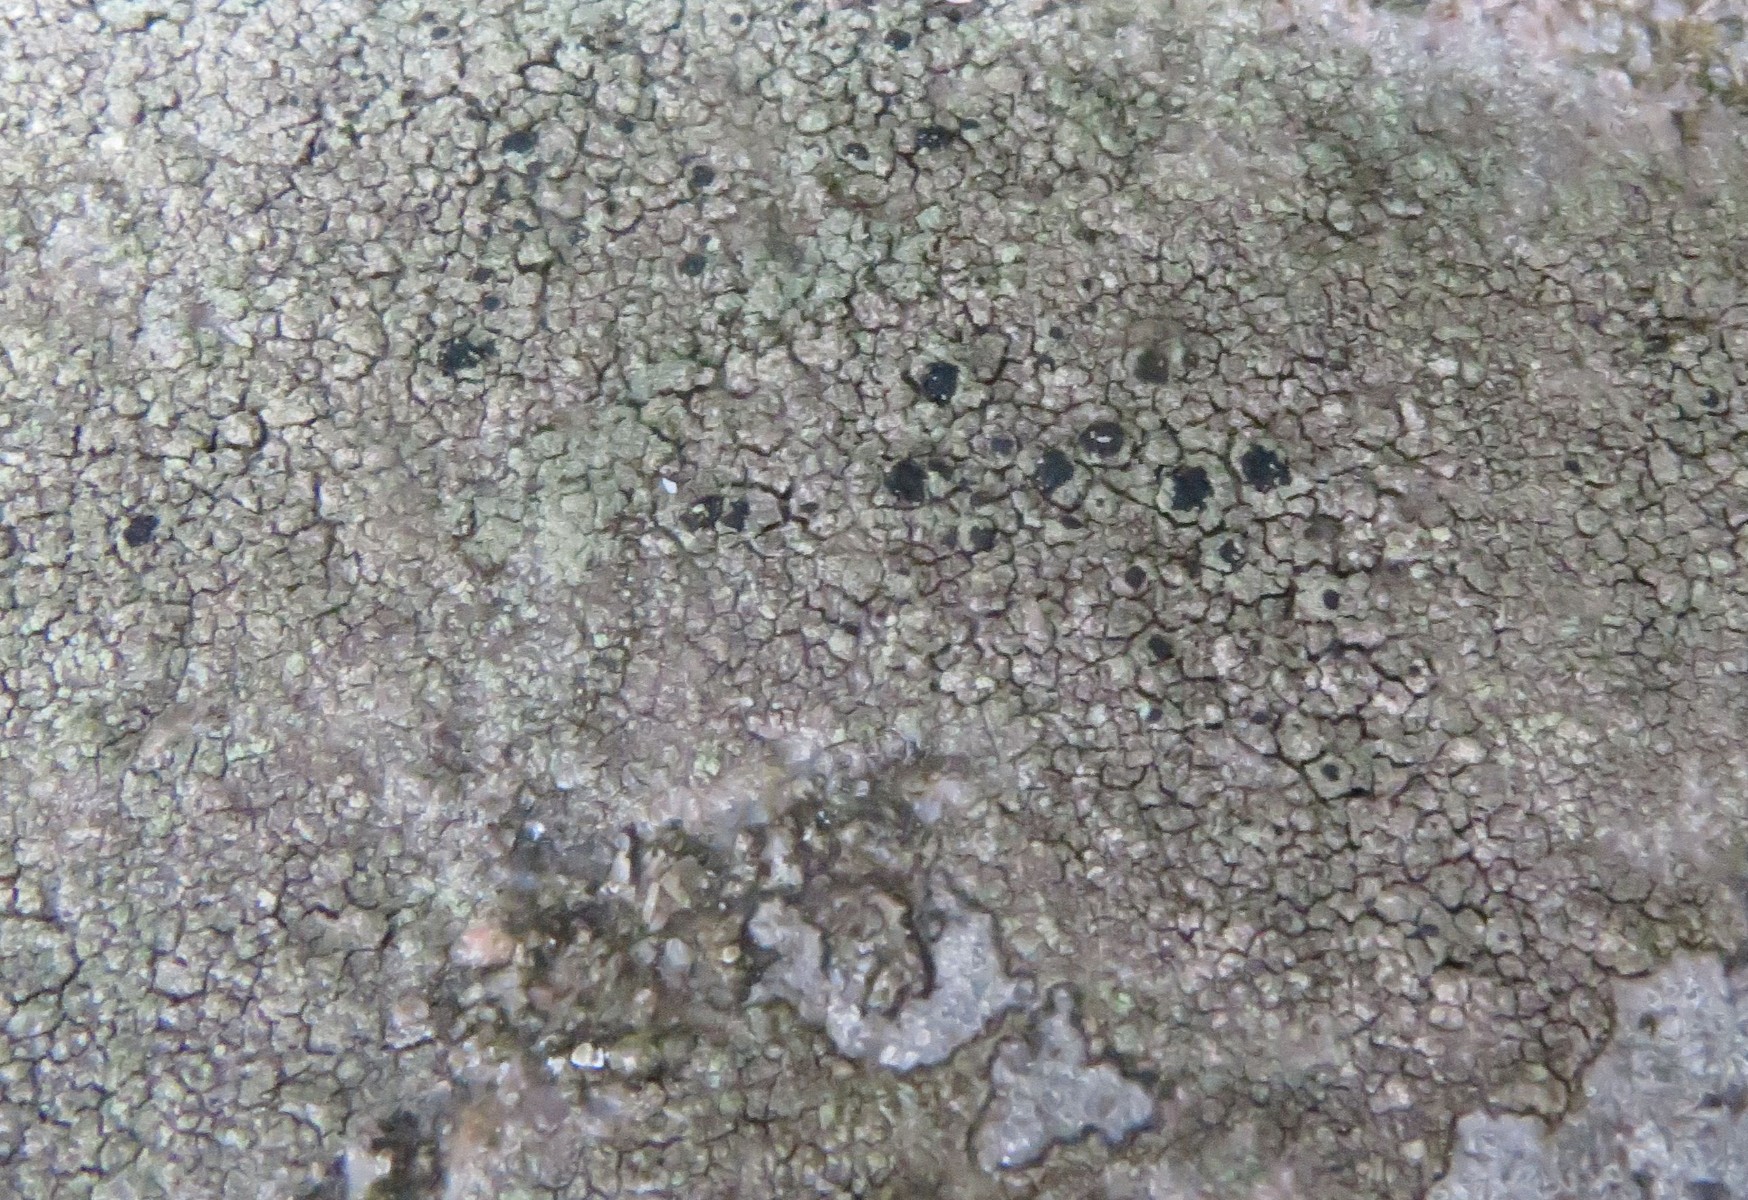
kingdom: Fungi
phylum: Ascomycota
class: Lecanoromycetes
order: Lecanorales
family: Lecanoraceae
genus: Lecidella
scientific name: Lecidella scabra
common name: skurvet skivelav
